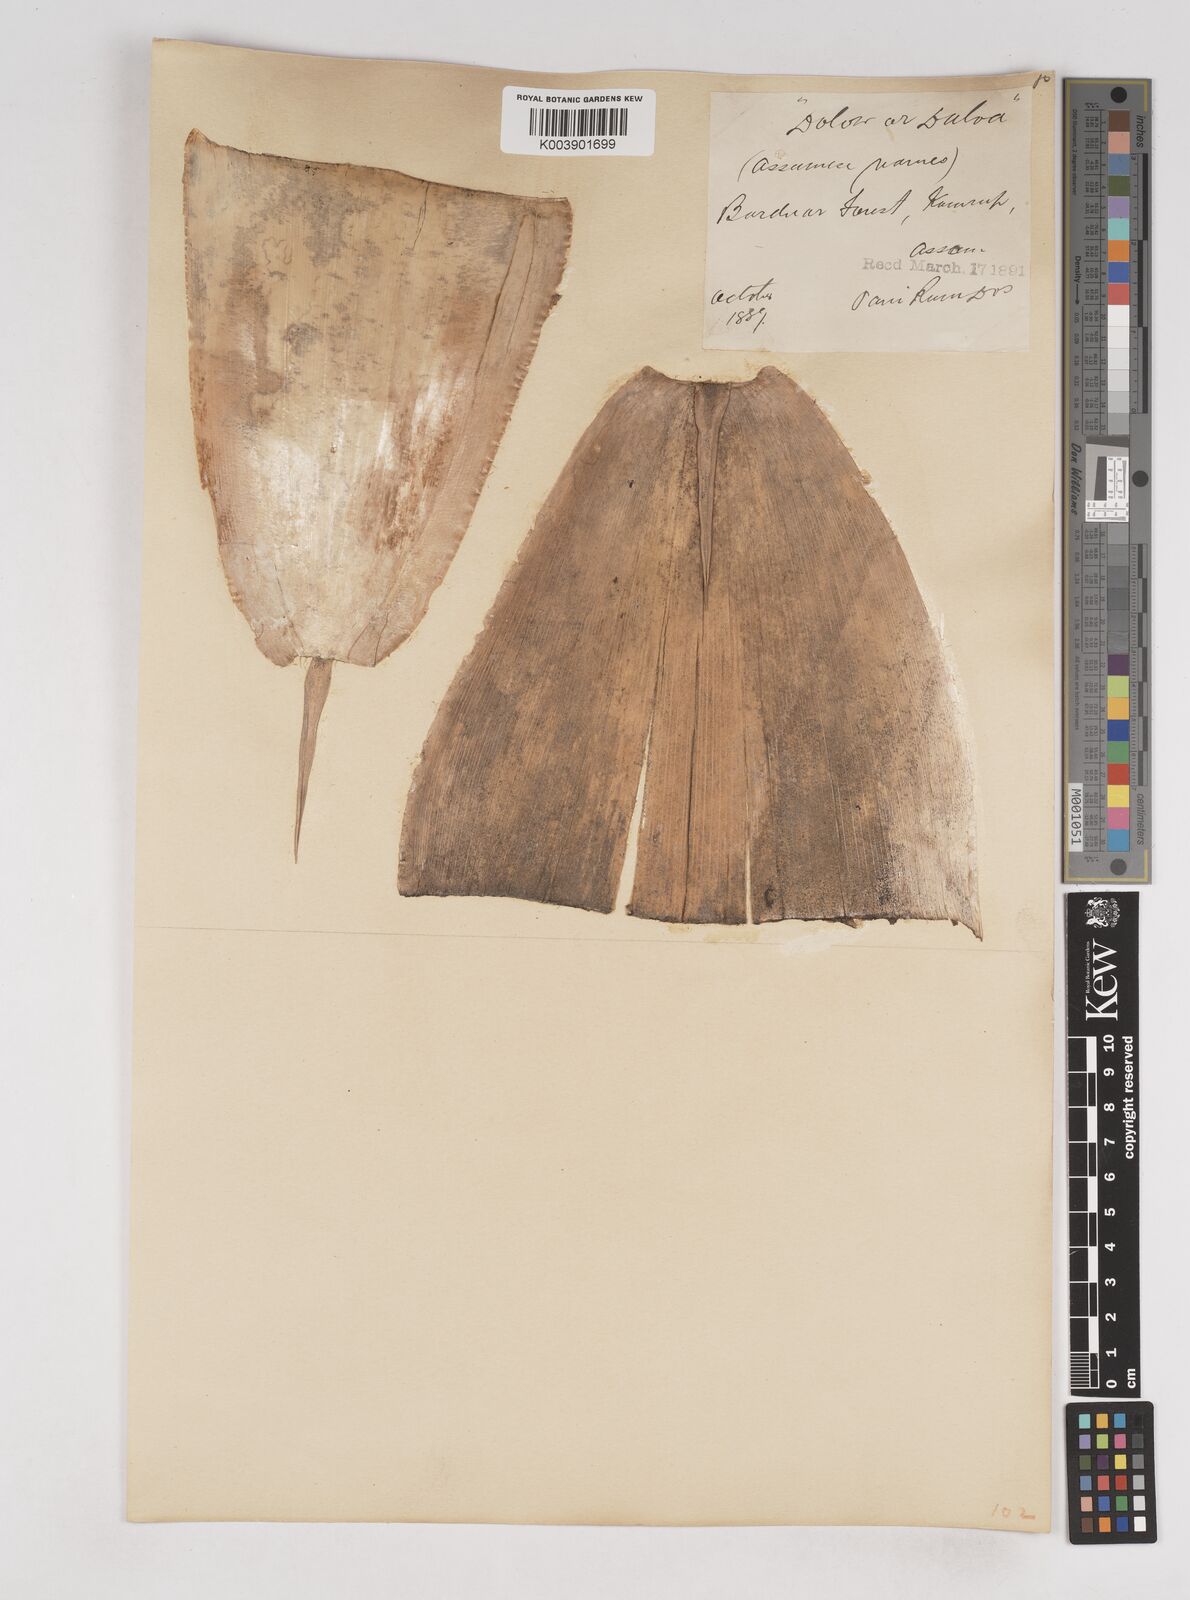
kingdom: Plantae
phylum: Tracheophyta
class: Liliopsida
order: Poales
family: Poaceae
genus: Schizostachyum
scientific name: Schizostachyum dullooa
